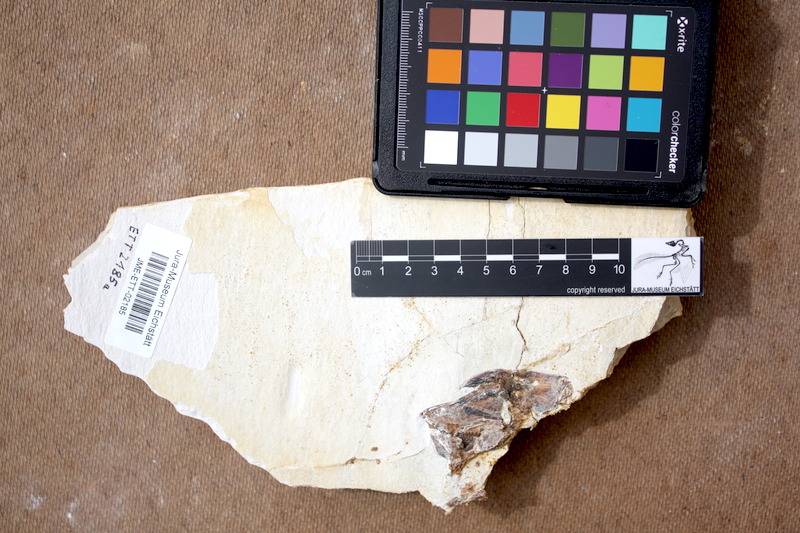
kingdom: Animalia
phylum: Chordata
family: Pycnodontidae
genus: Turbomesodon
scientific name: Turbomesodon relegans
